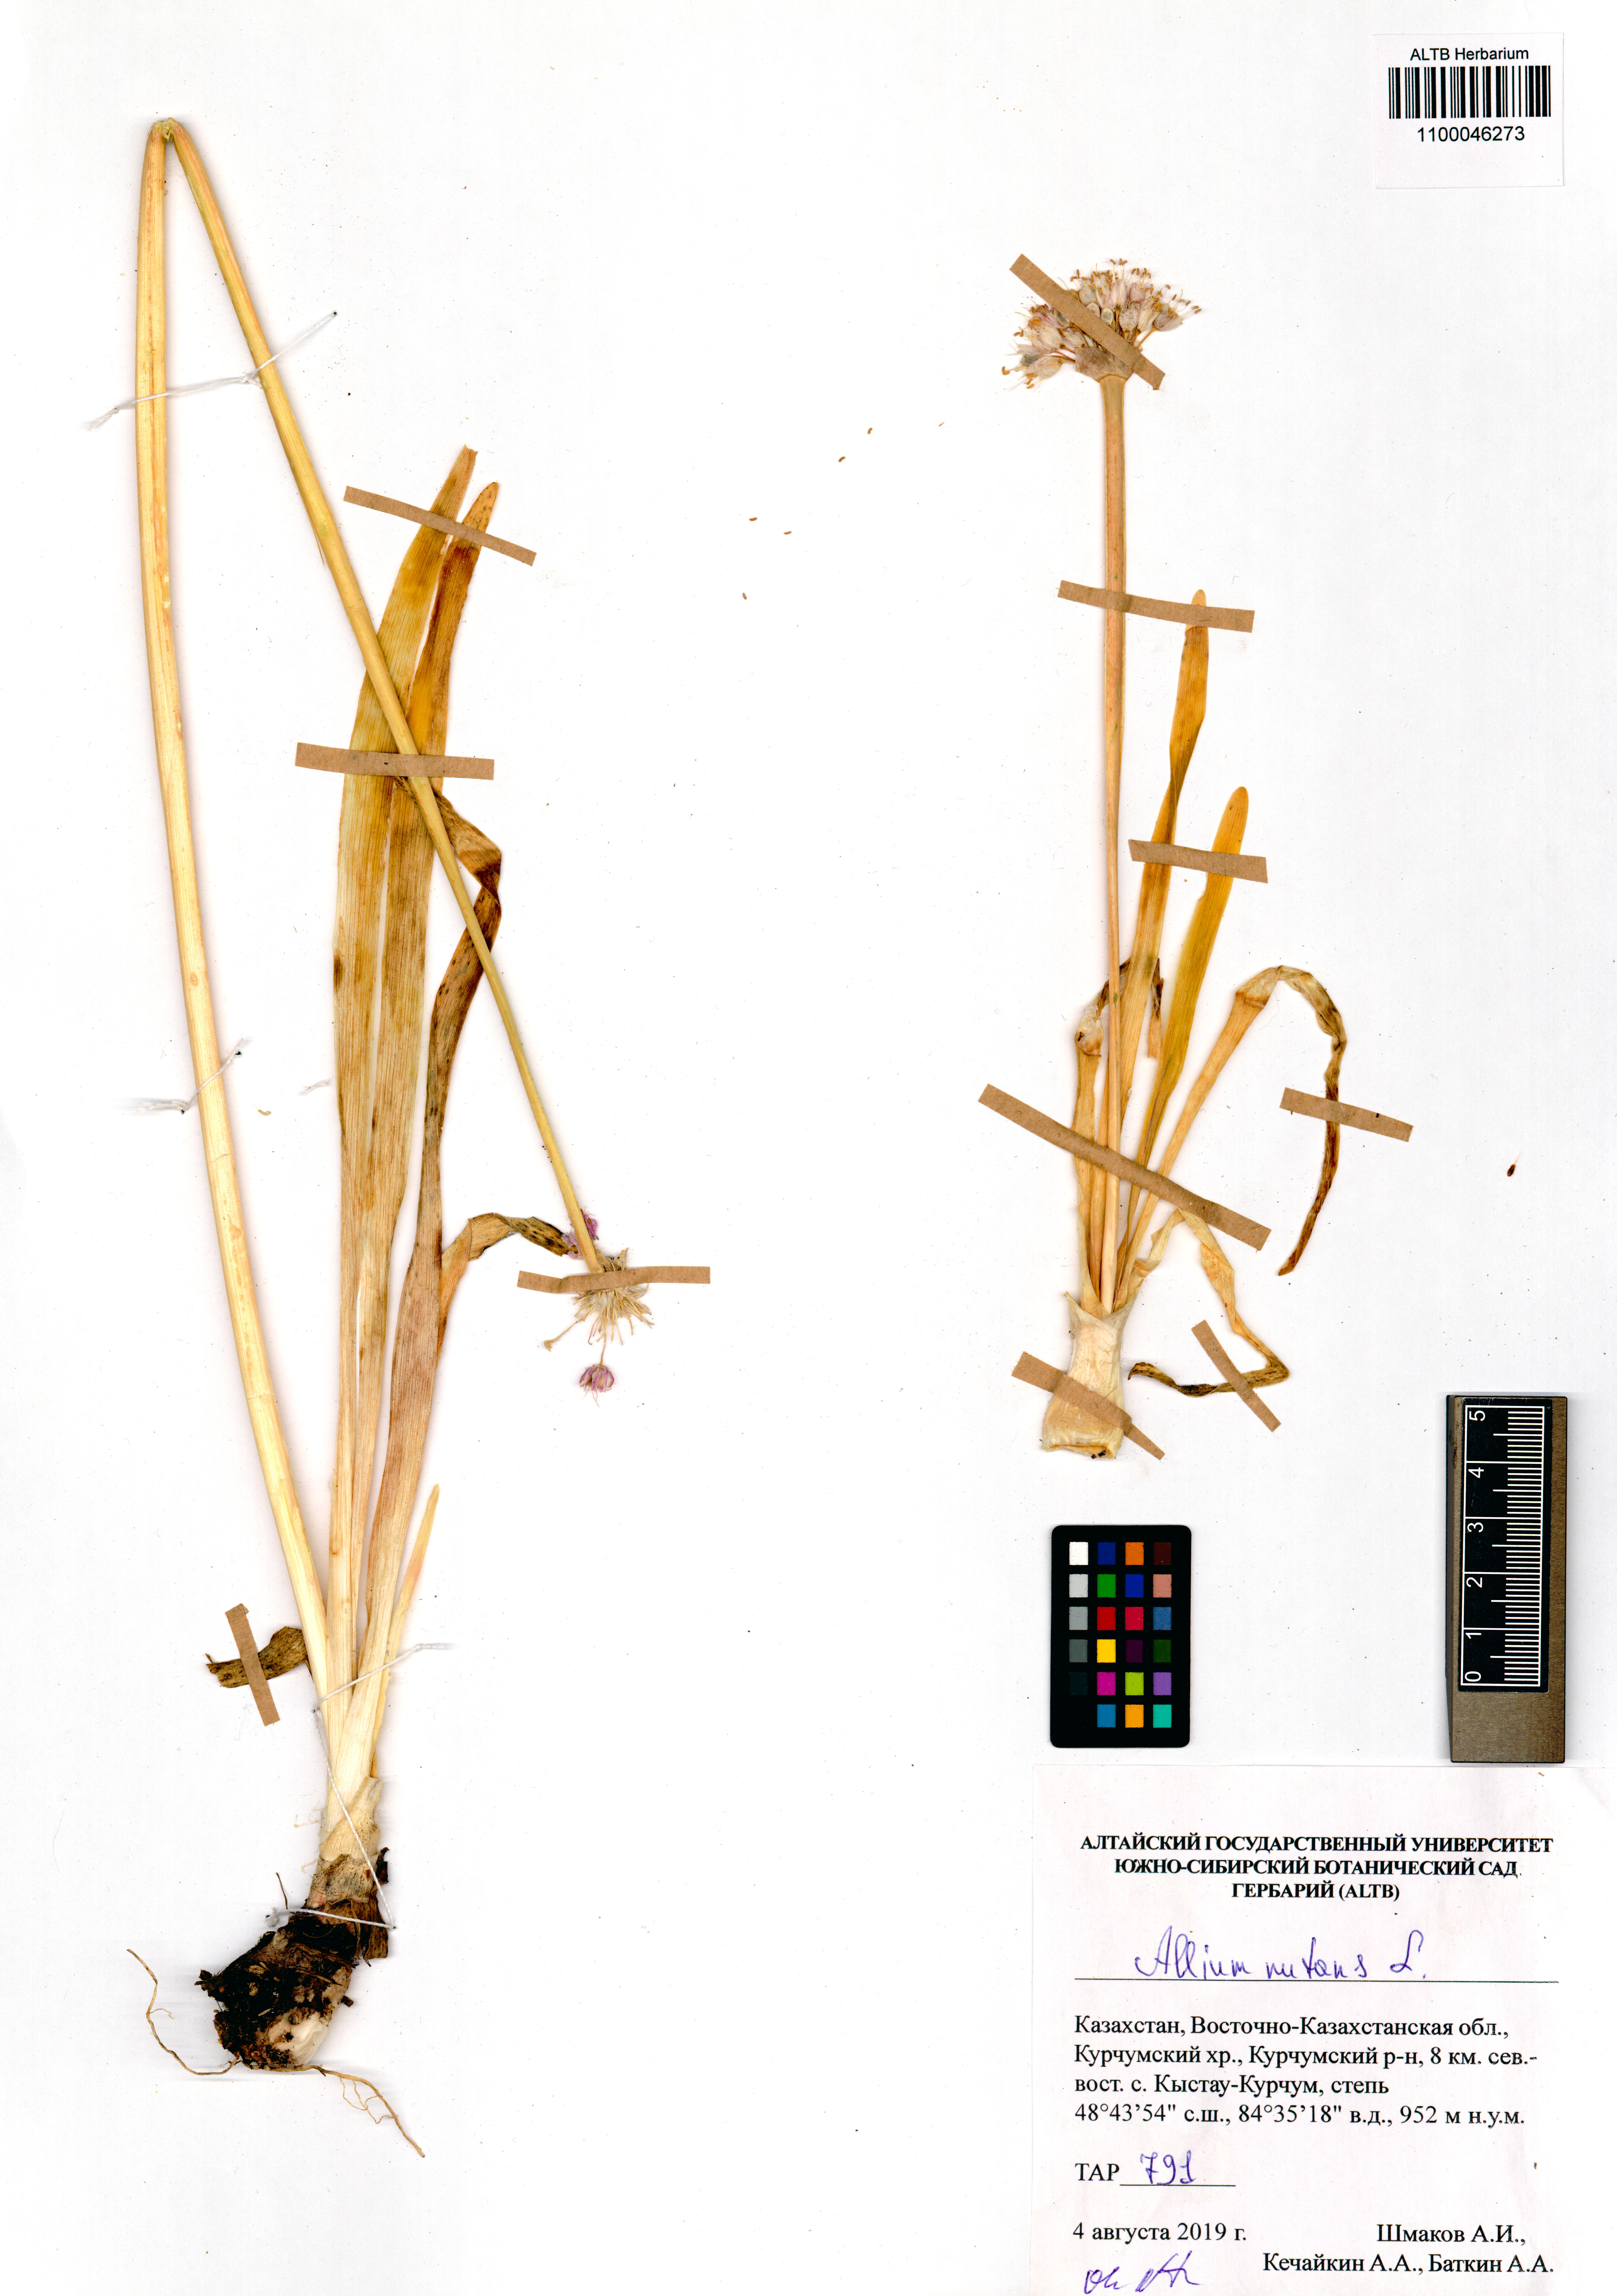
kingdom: Plantae
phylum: Tracheophyta
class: Liliopsida
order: Asparagales
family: Amaryllidaceae
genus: Allium
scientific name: Allium nutans
